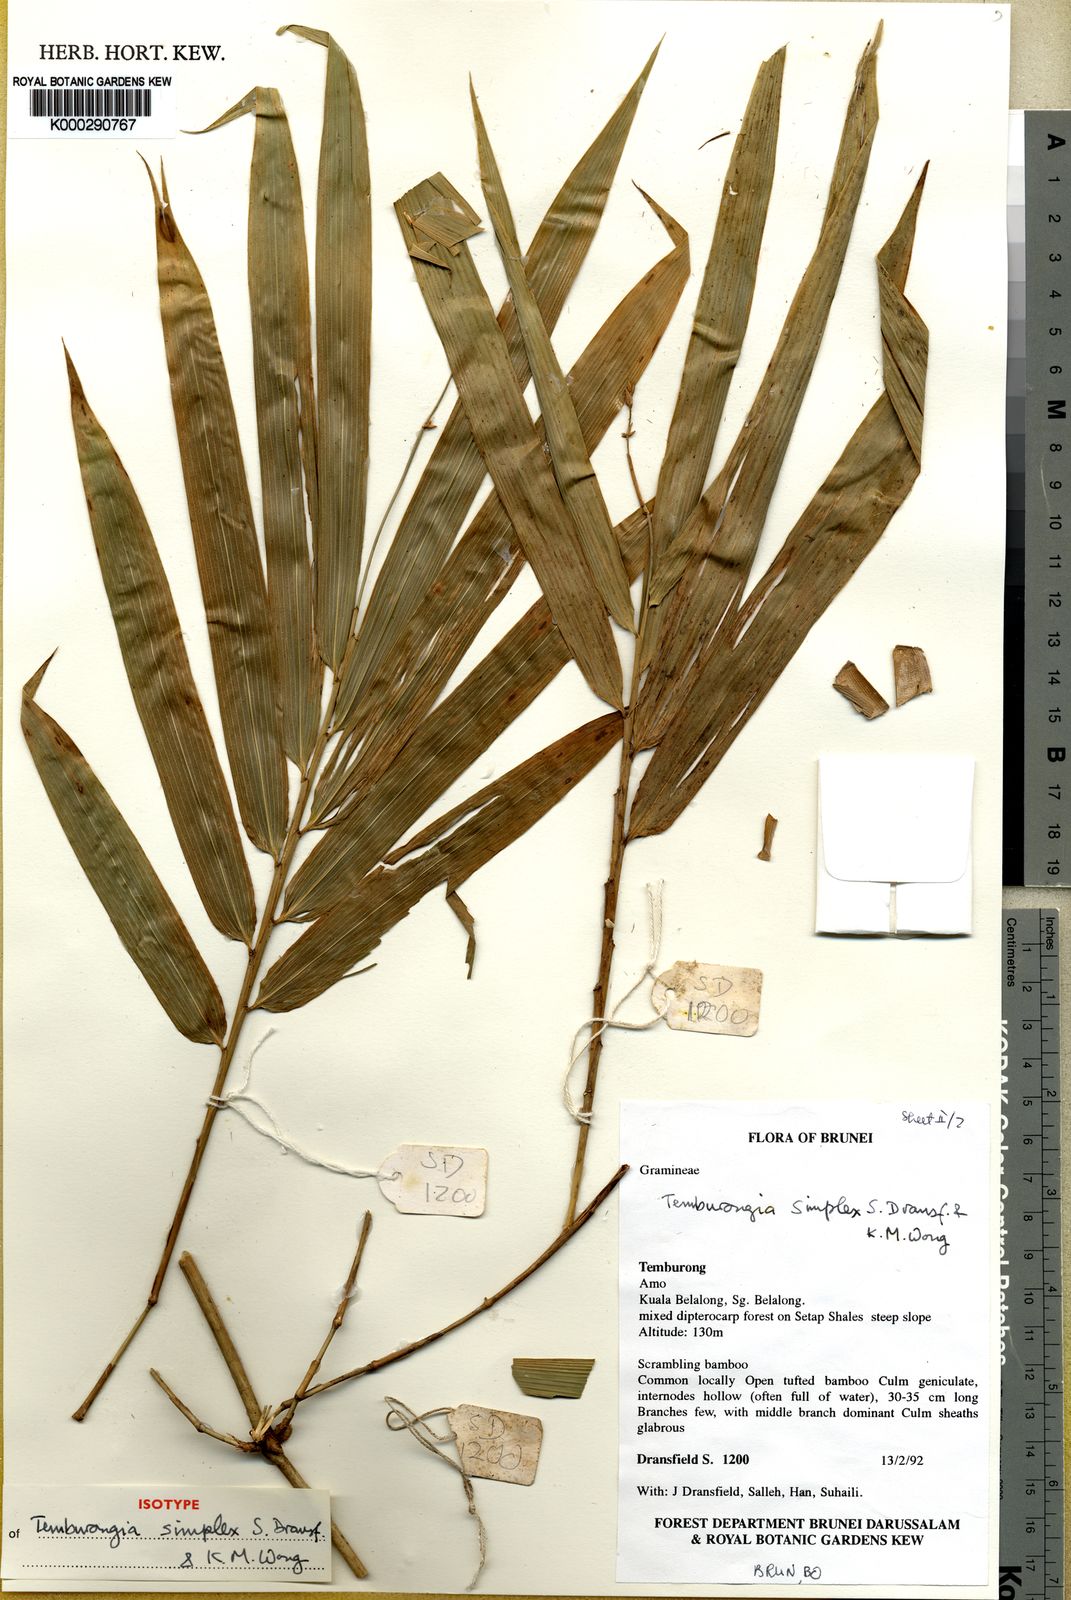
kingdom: Plantae
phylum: Tracheophyta
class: Liliopsida
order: Poales
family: Poaceae
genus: Temburongia
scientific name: Temburongia simplex
